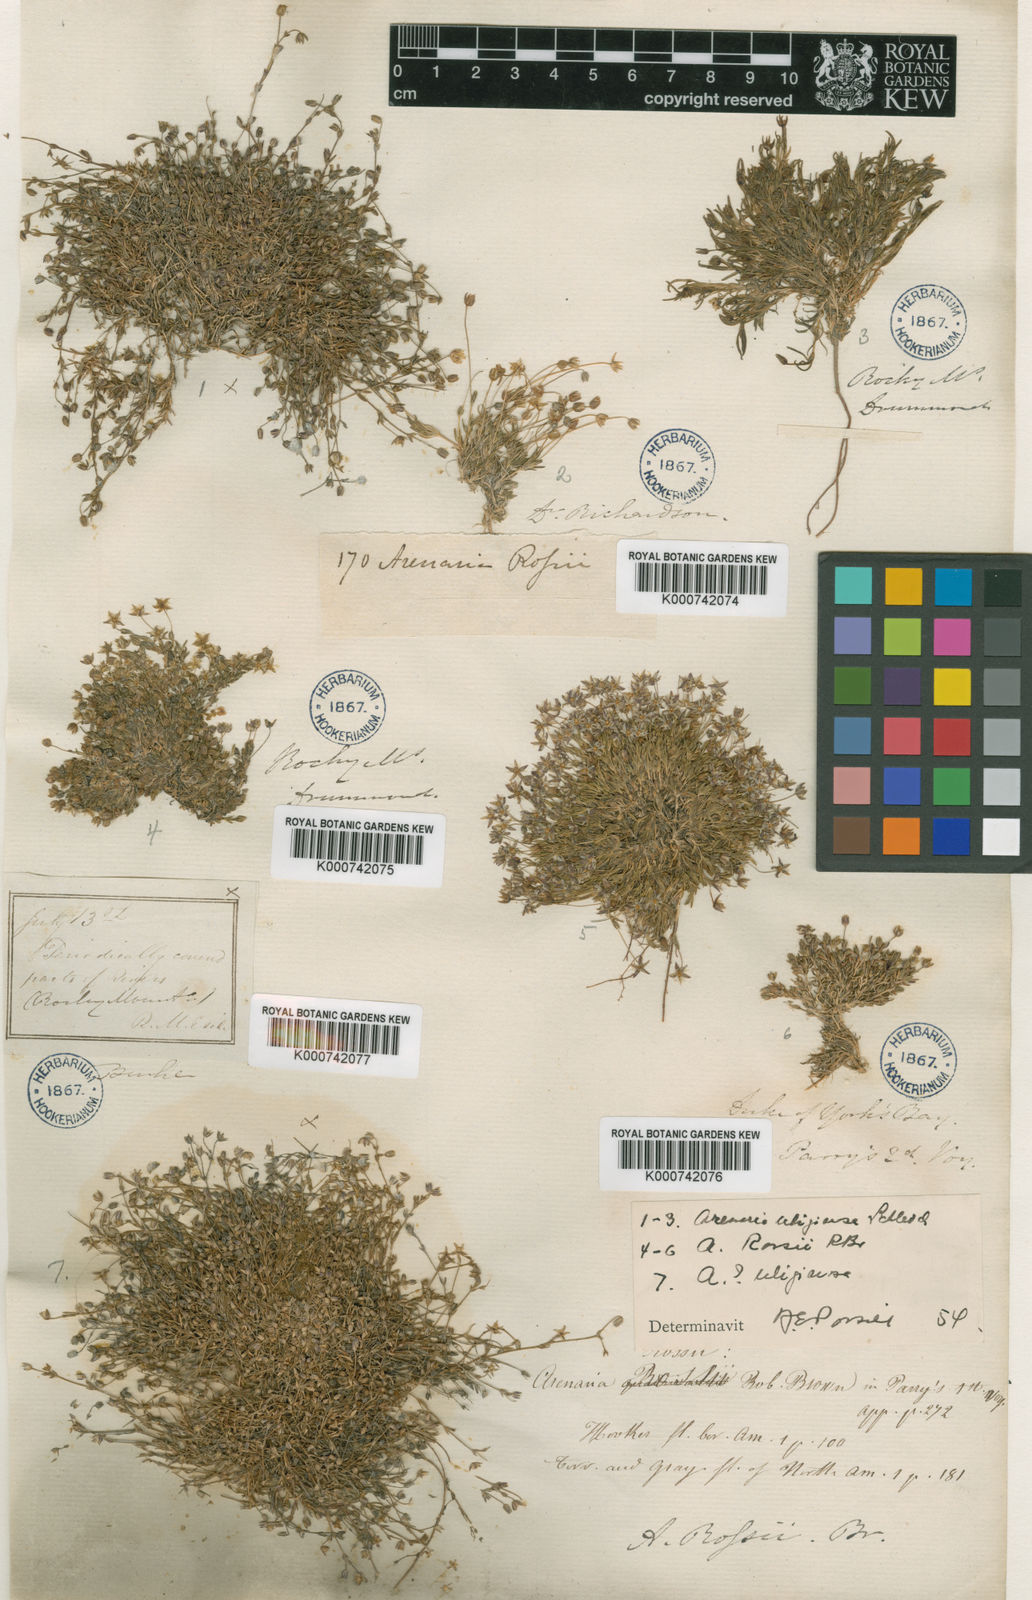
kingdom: Plantae
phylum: Tracheophyta
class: Magnoliopsida
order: Caryophyllales
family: Caryophyllaceae
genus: Sabulina
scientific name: Sabulina rosei
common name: Ross' sandwort
